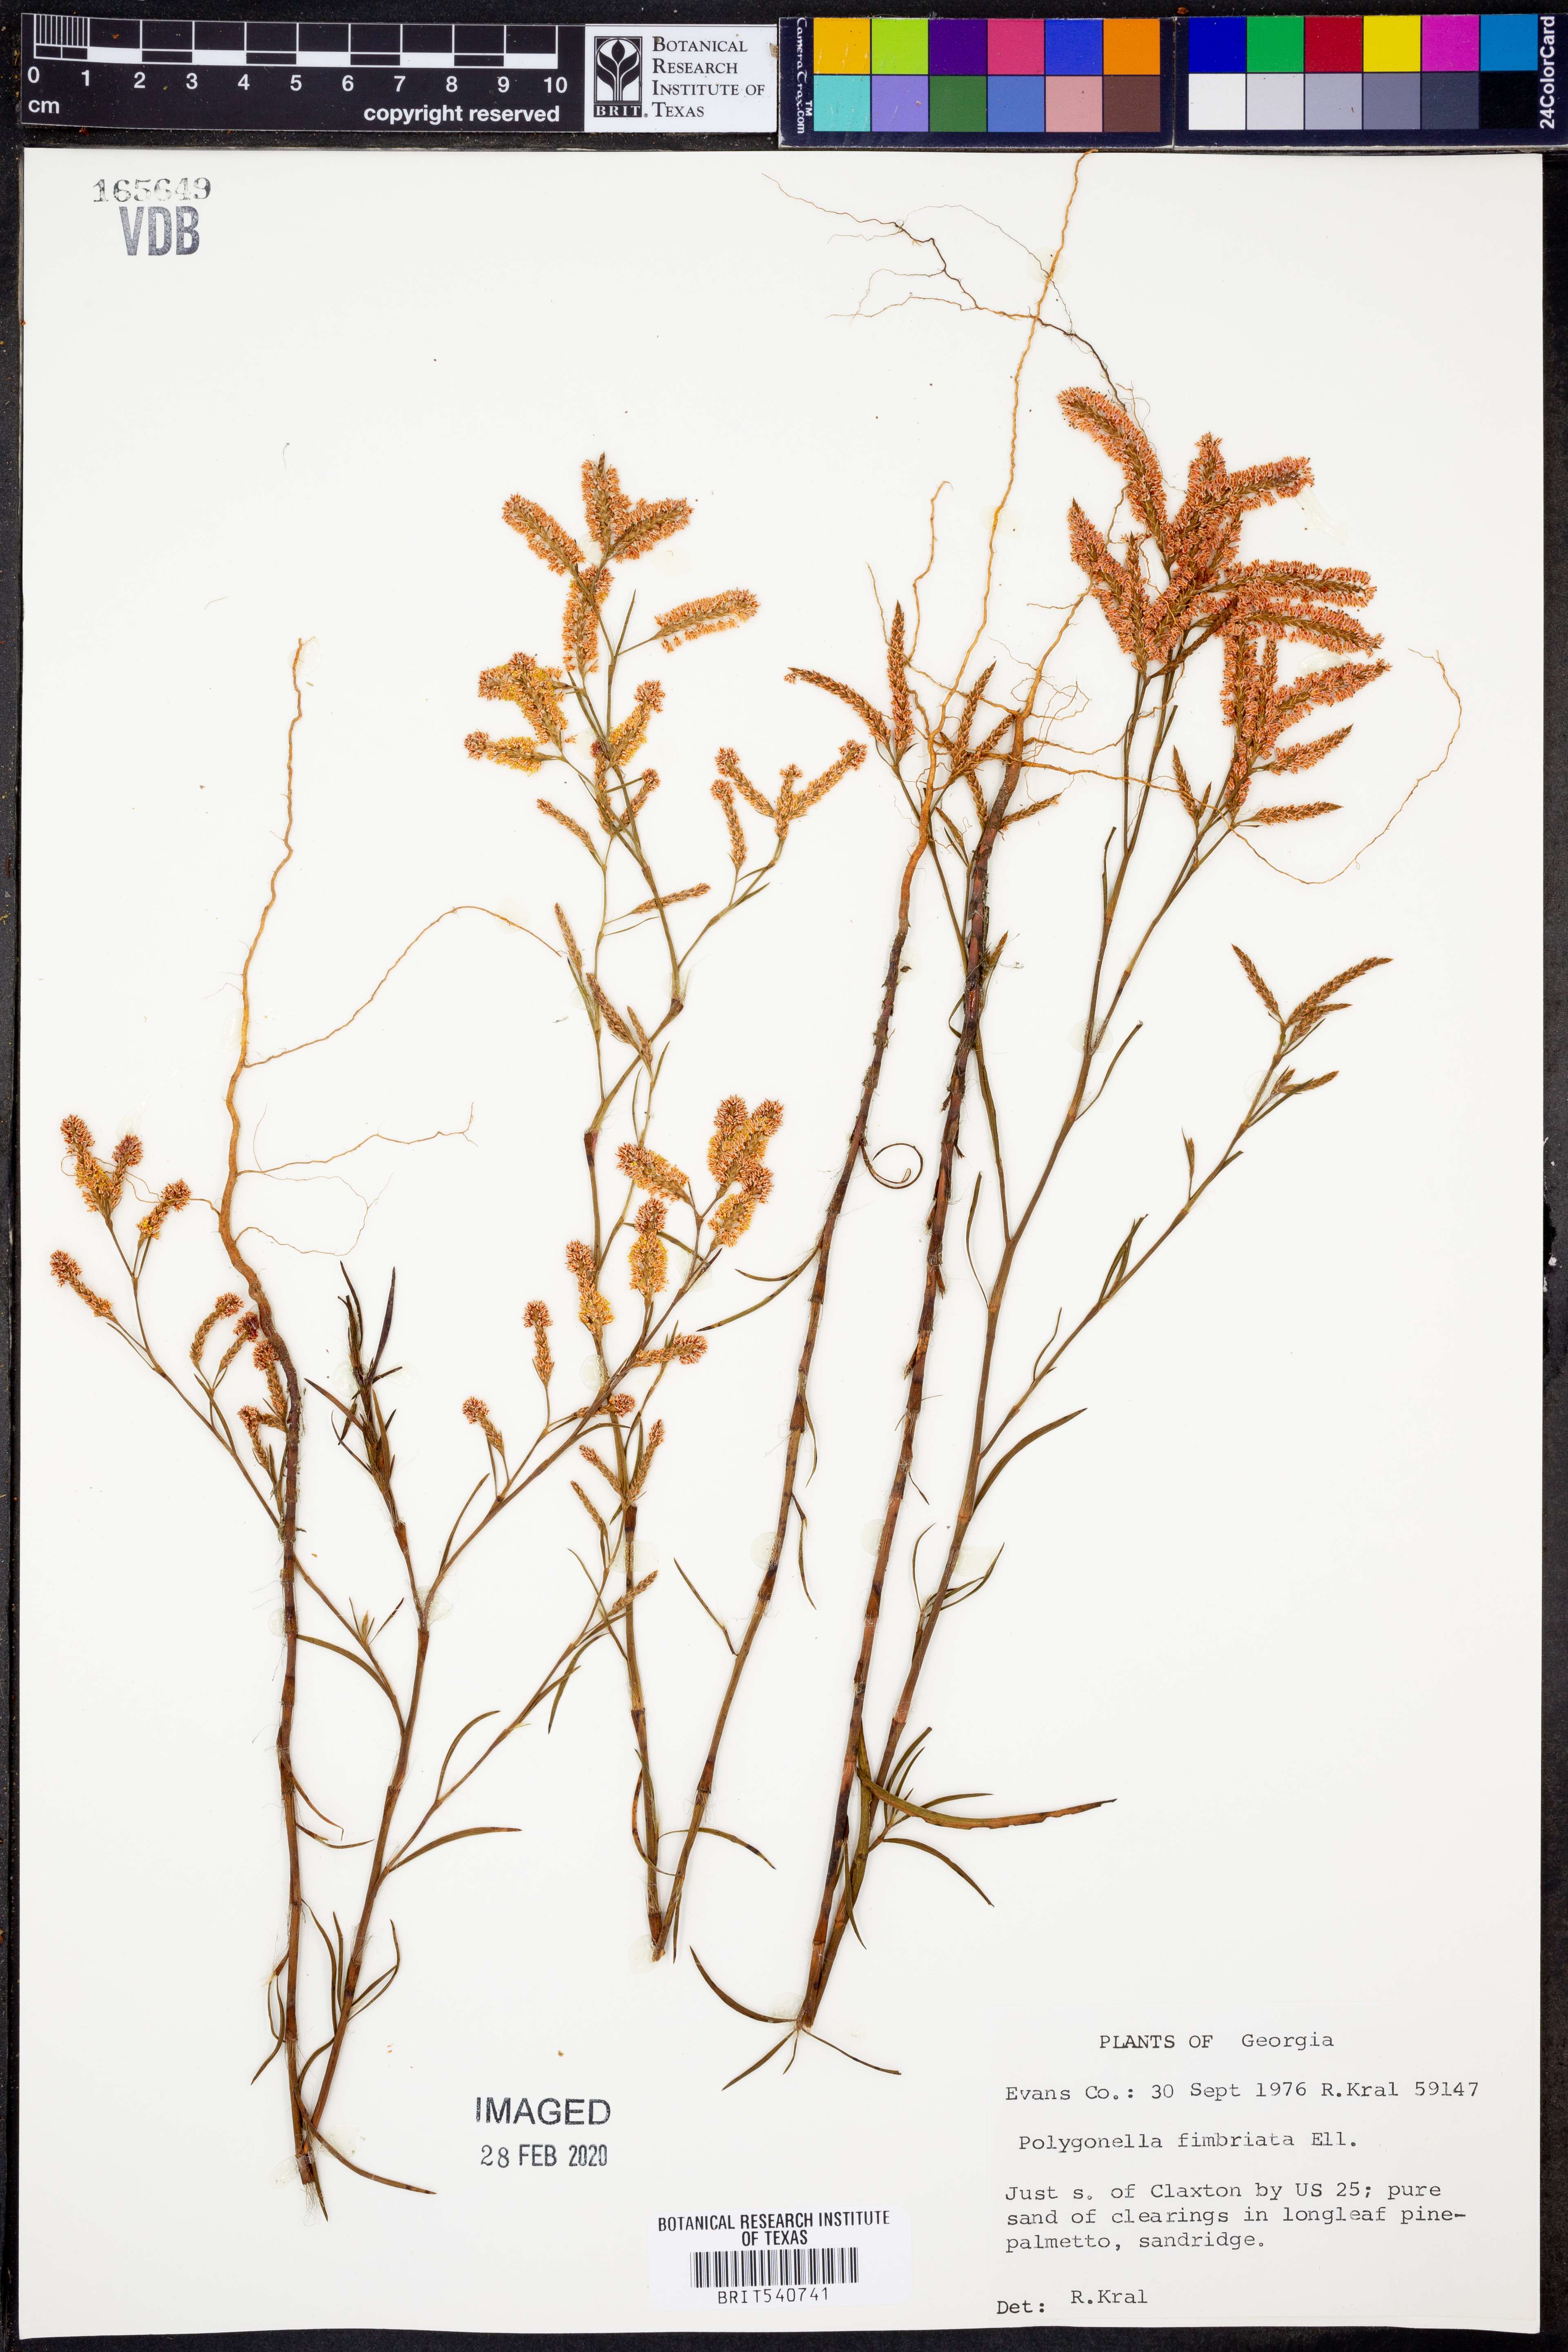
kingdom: Plantae
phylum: Tracheophyta
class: Magnoliopsida
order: Caryophyllales
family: Polygonaceae
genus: Polygonella
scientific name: Polygonella fimbriata
